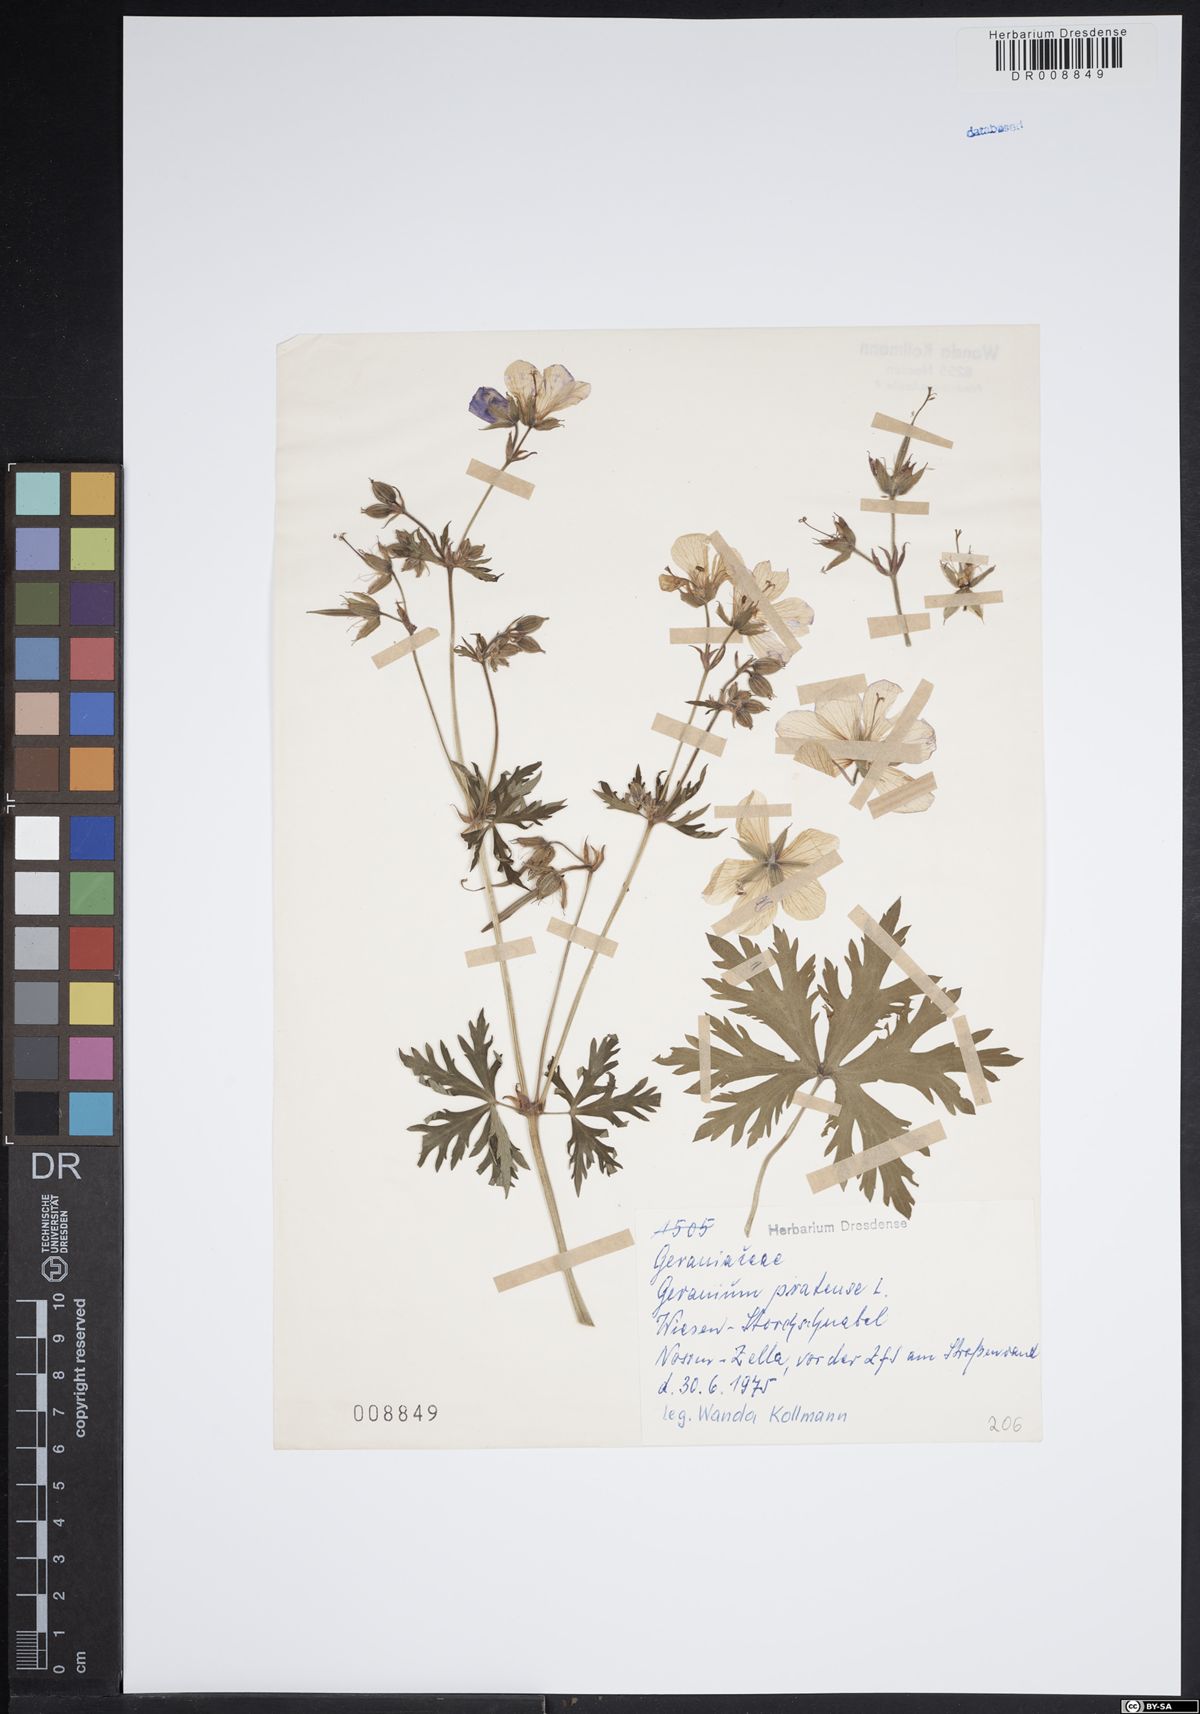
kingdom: Plantae
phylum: Tracheophyta
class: Magnoliopsida
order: Geraniales
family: Geraniaceae
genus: Geranium
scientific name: Geranium pratense
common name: Meadow crane's-bill
